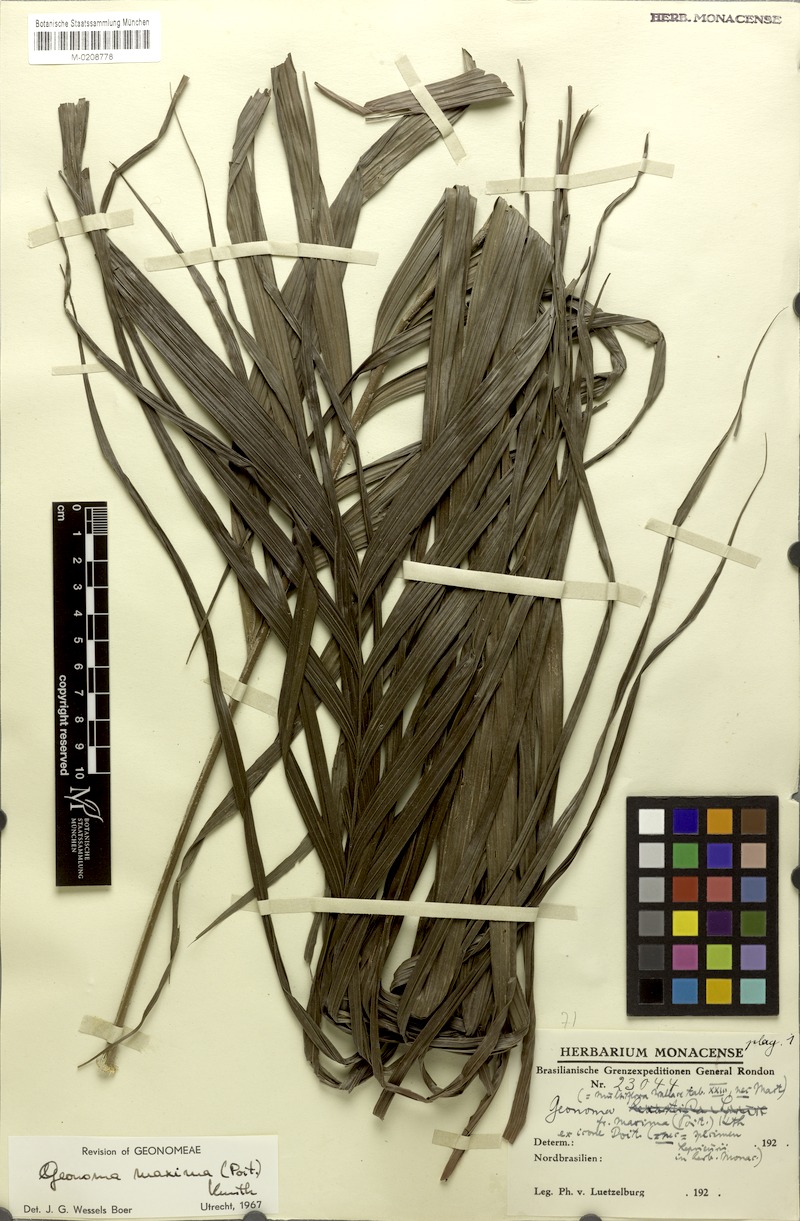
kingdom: Plantae
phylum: Tracheophyta
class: Liliopsida
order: Arecales
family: Arecaceae
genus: Geonoma
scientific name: Geonoma maxima
